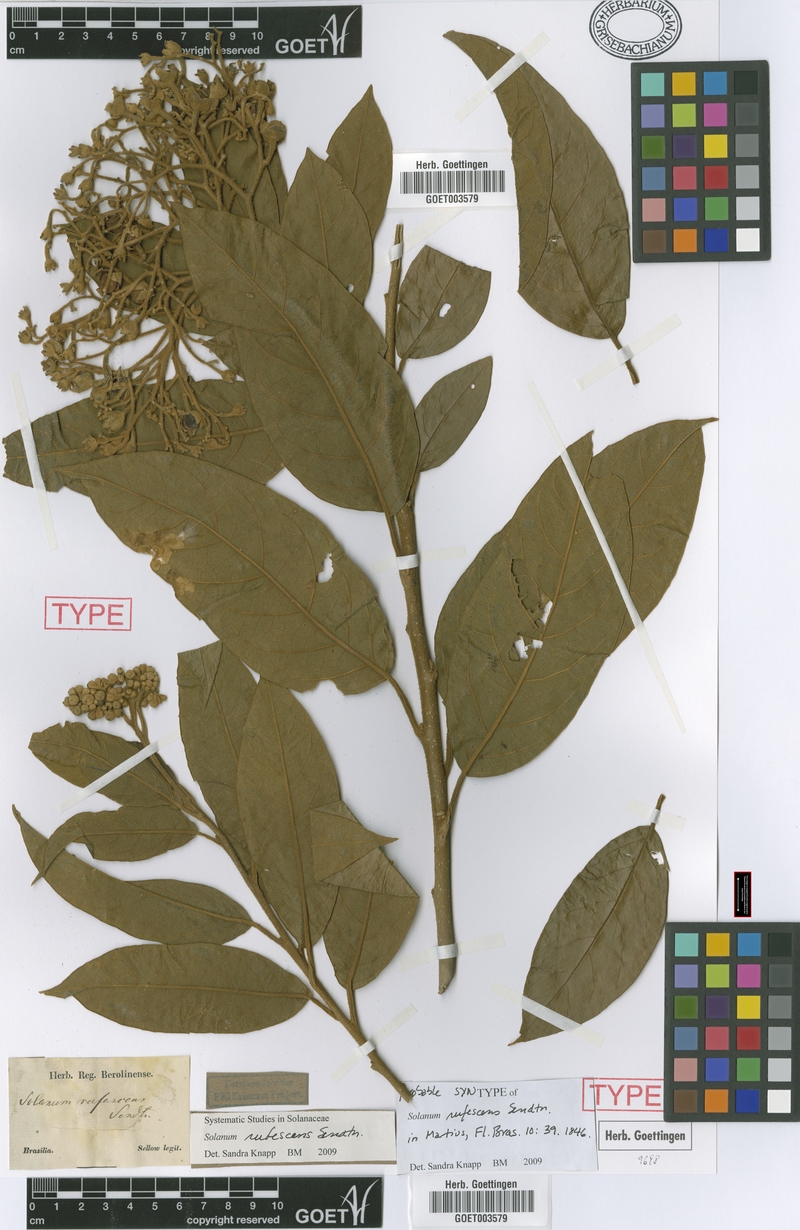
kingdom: Plantae
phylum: Tracheophyta
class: Magnoliopsida
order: Solanales
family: Solanaceae
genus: Solanum
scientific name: Solanum rufescens
